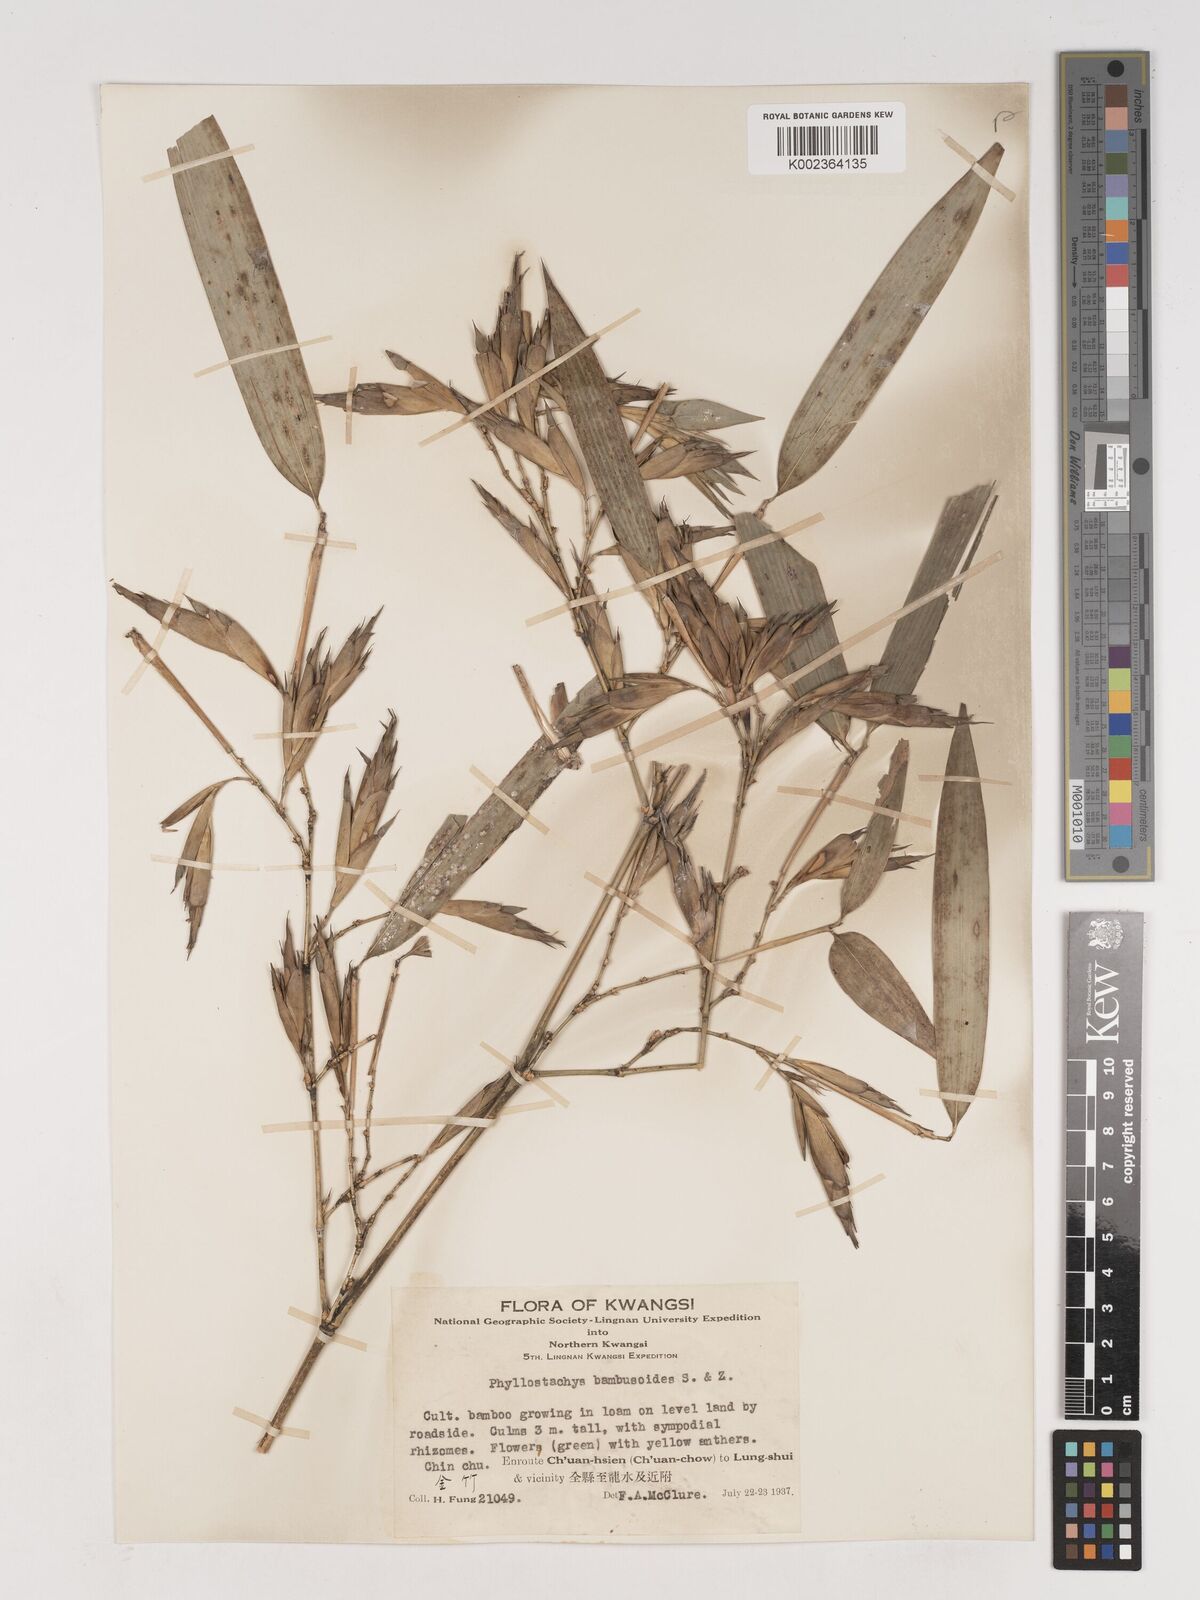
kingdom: Plantae
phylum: Tracheophyta
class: Liliopsida
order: Poales
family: Poaceae
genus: Phyllostachys
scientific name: Phyllostachys reticulata
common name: Bamboo
